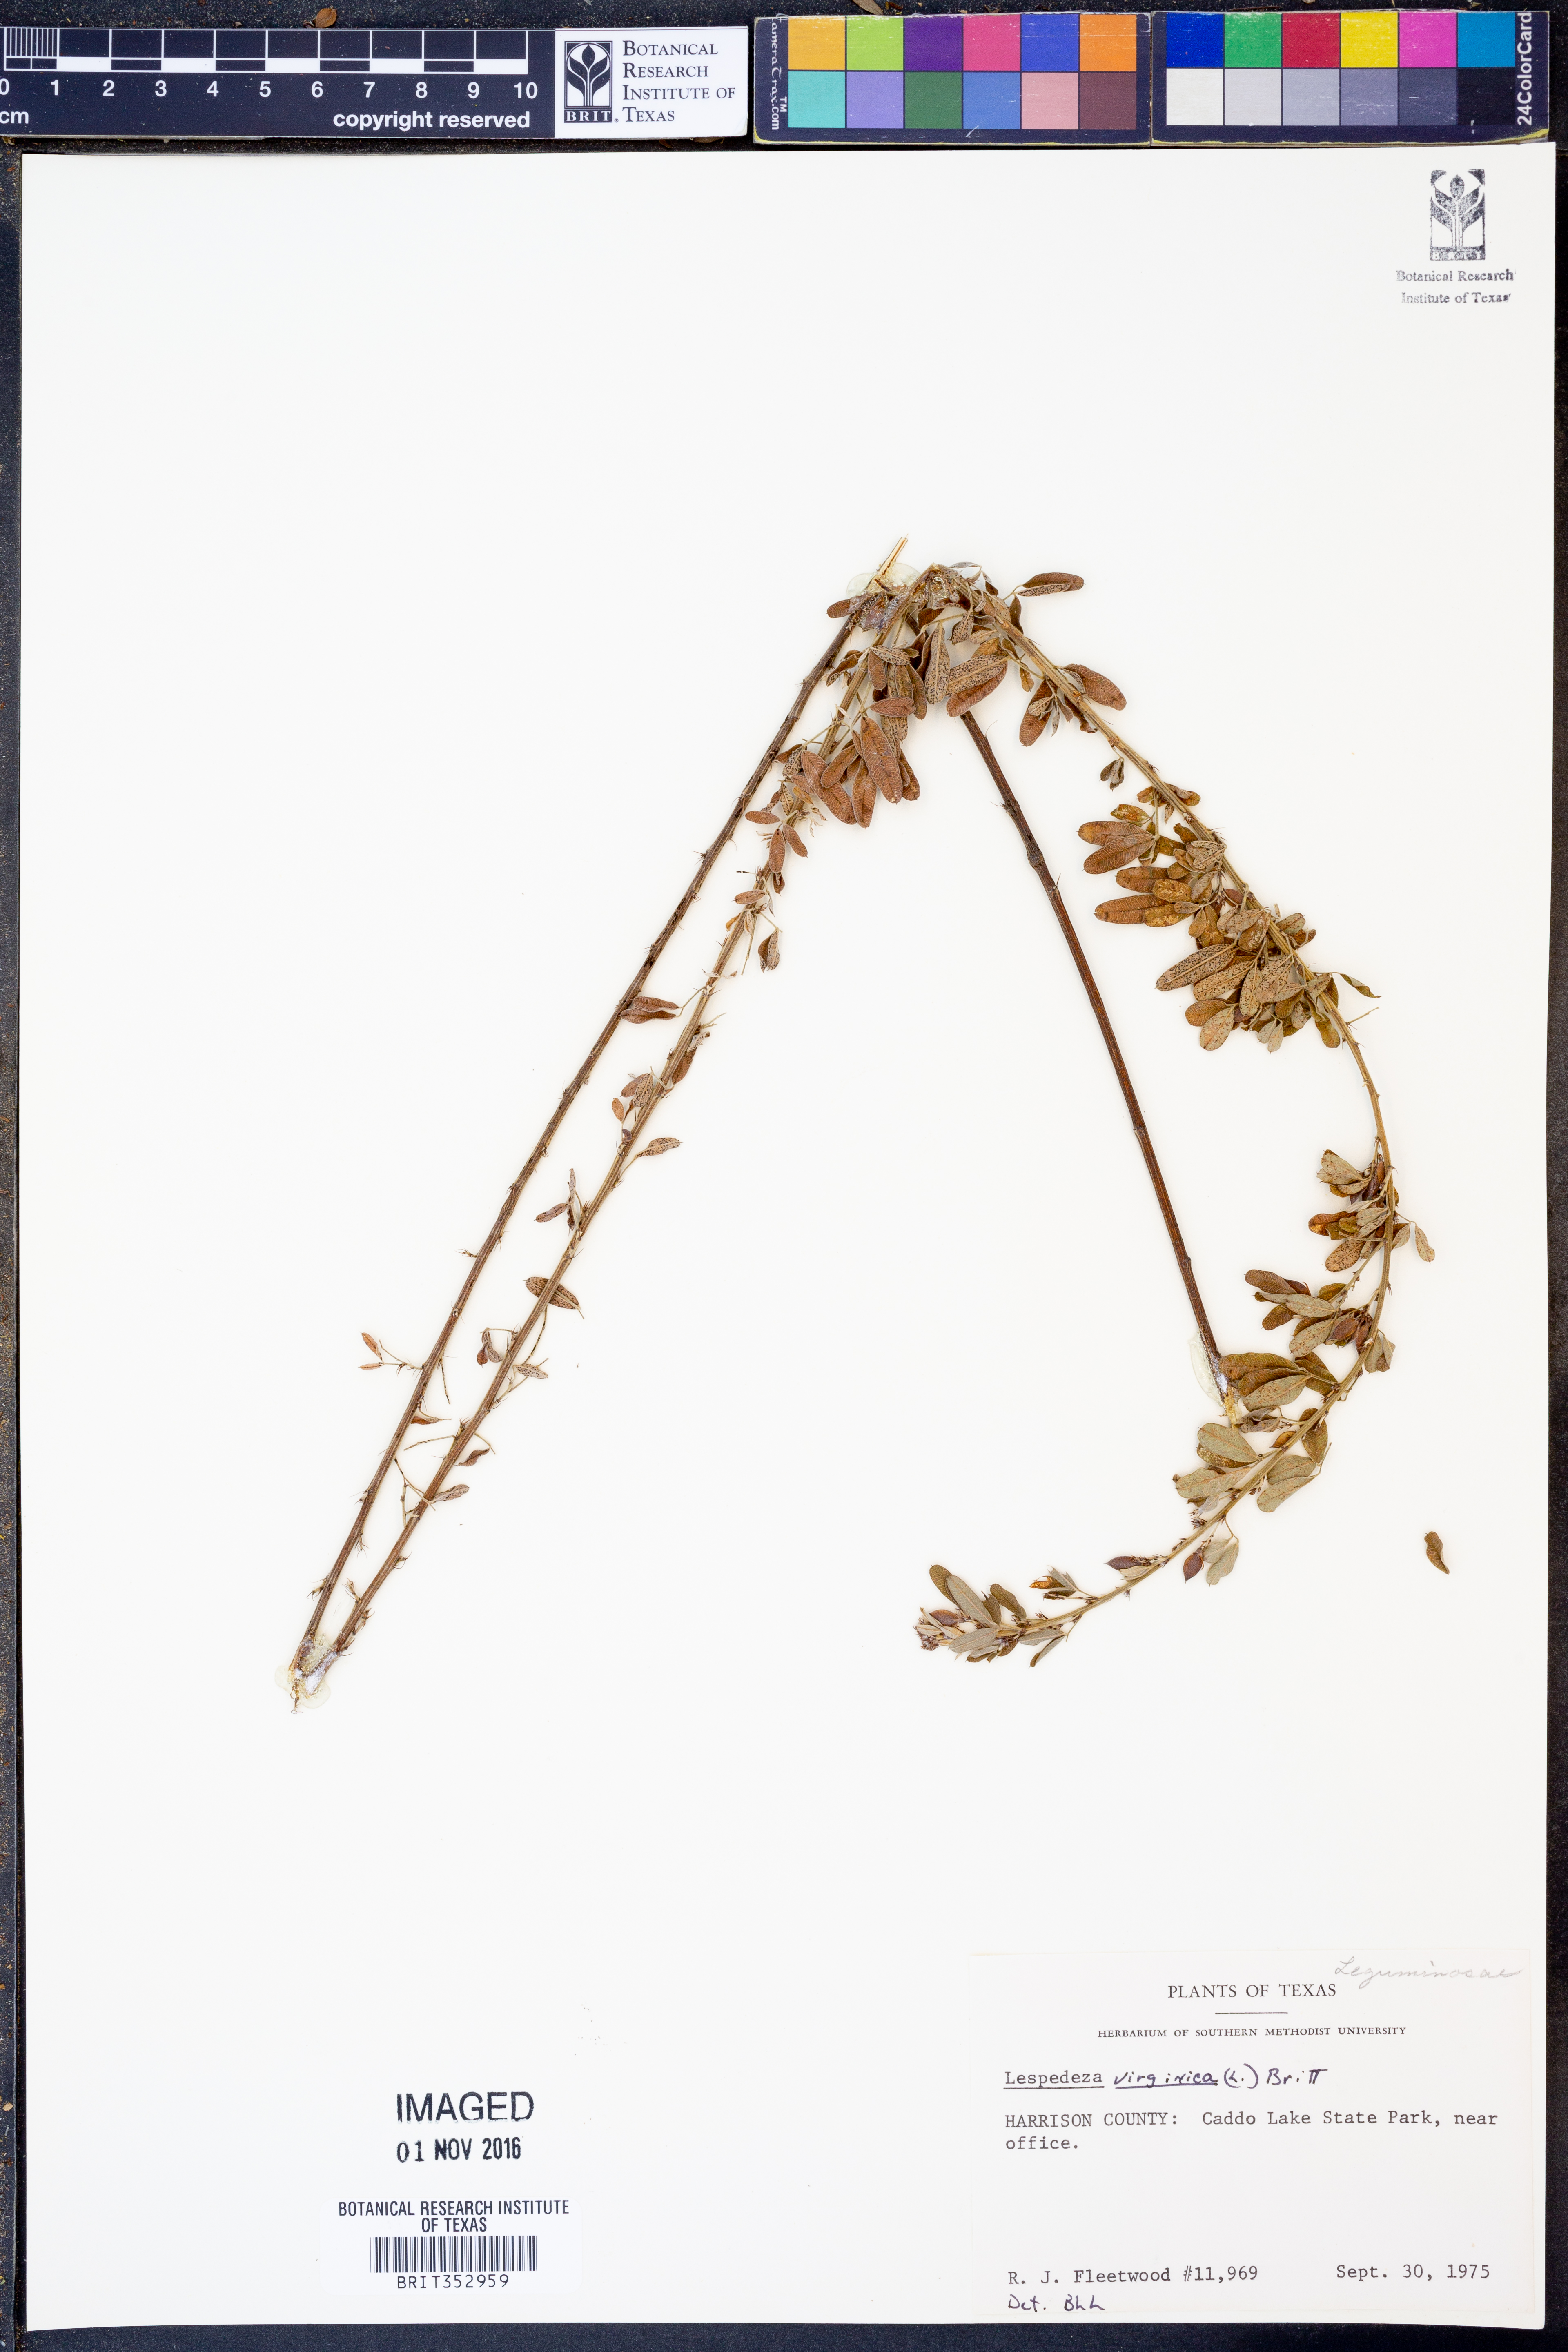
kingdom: Plantae
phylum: Tracheophyta
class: Magnoliopsida
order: Fabales
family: Fabaceae
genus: Lespedeza
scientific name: Lespedeza virginica
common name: Slender bush-clover
